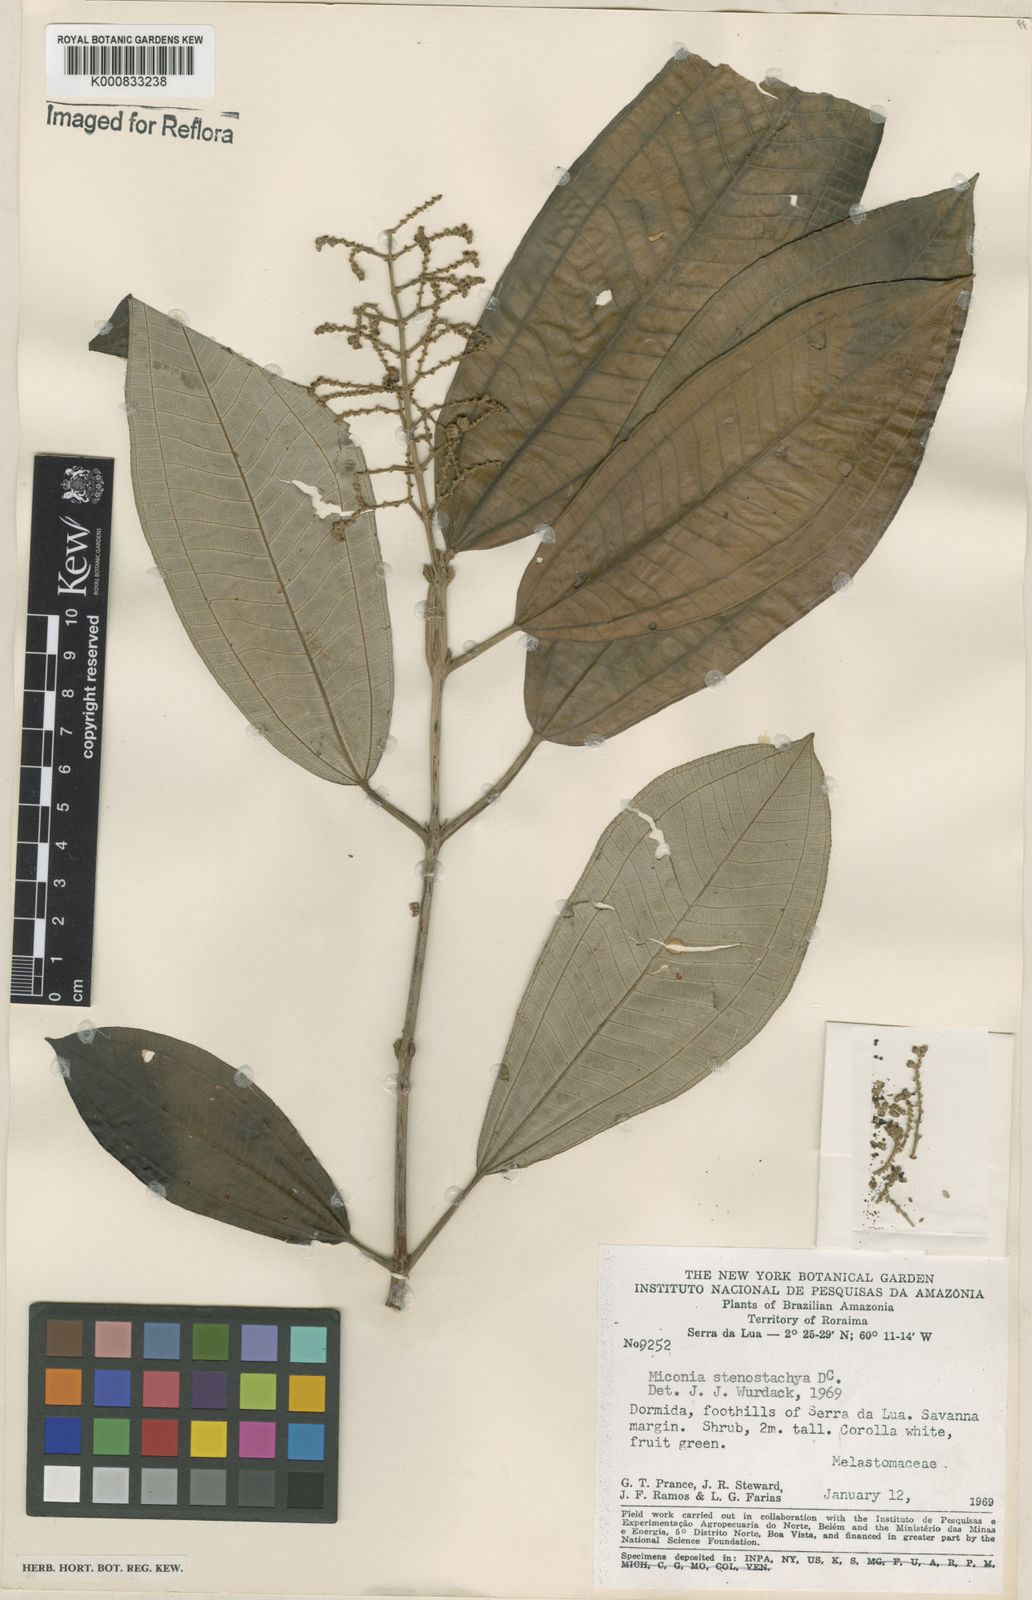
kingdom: Plantae
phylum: Tracheophyta
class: Magnoliopsida
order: Myrtales
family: Melastomataceae
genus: Miconia
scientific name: Miconia stenostachya
